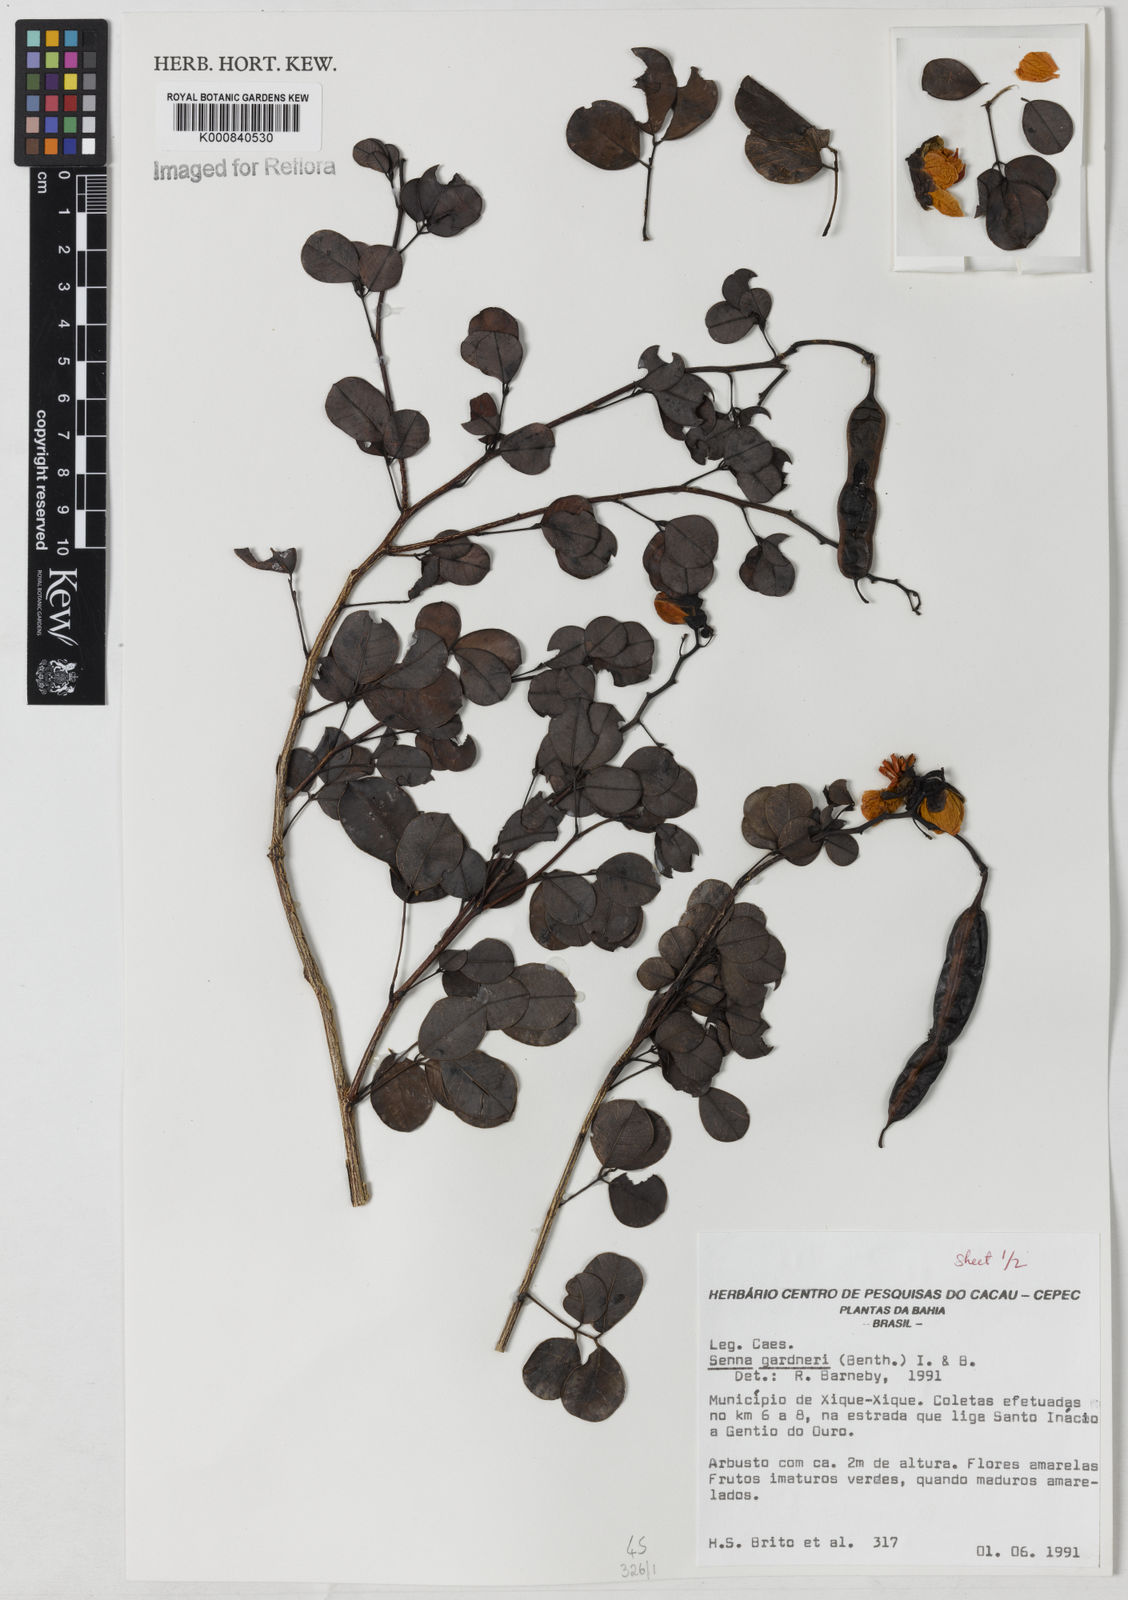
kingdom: Plantae
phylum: Tracheophyta
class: Magnoliopsida
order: Fabales
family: Fabaceae
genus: Senna
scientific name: Senna gardneri
